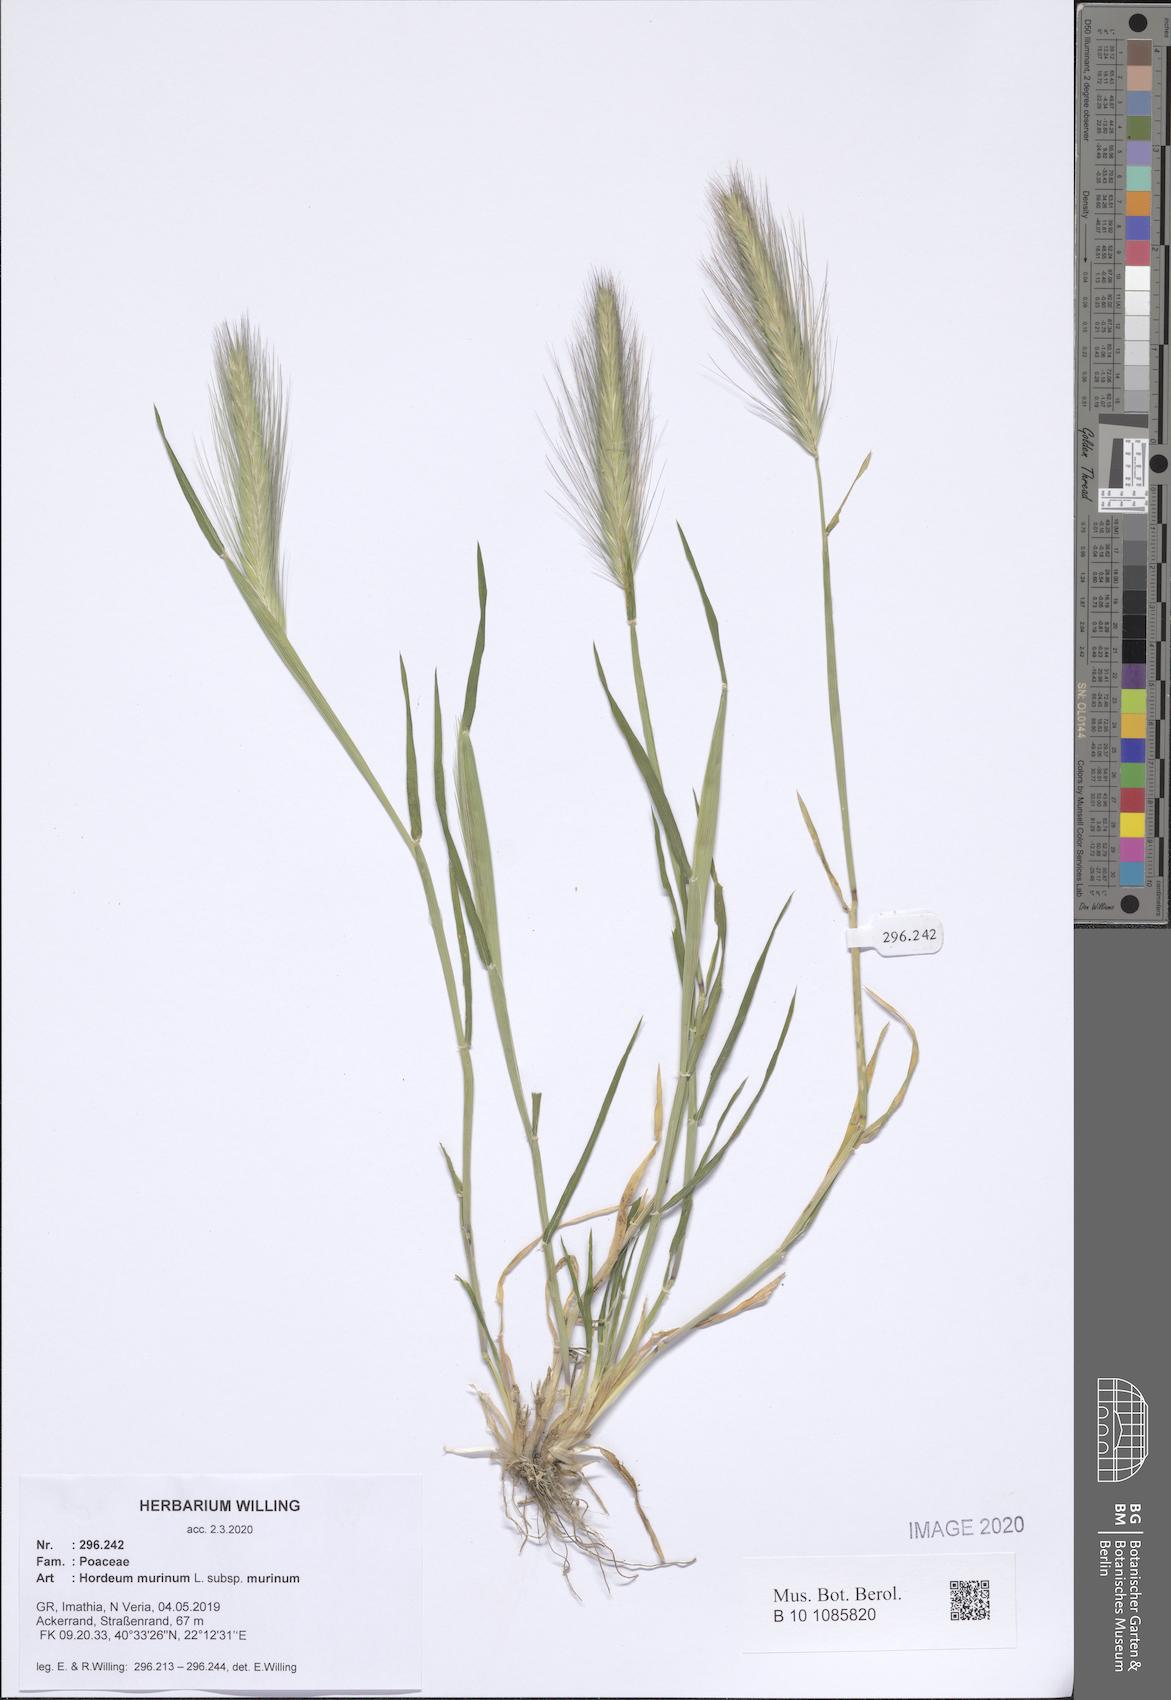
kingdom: Plantae
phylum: Tracheophyta
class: Liliopsida
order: Poales
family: Poaceae
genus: Hordeum
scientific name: Hordeum murinum
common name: Wall barley
